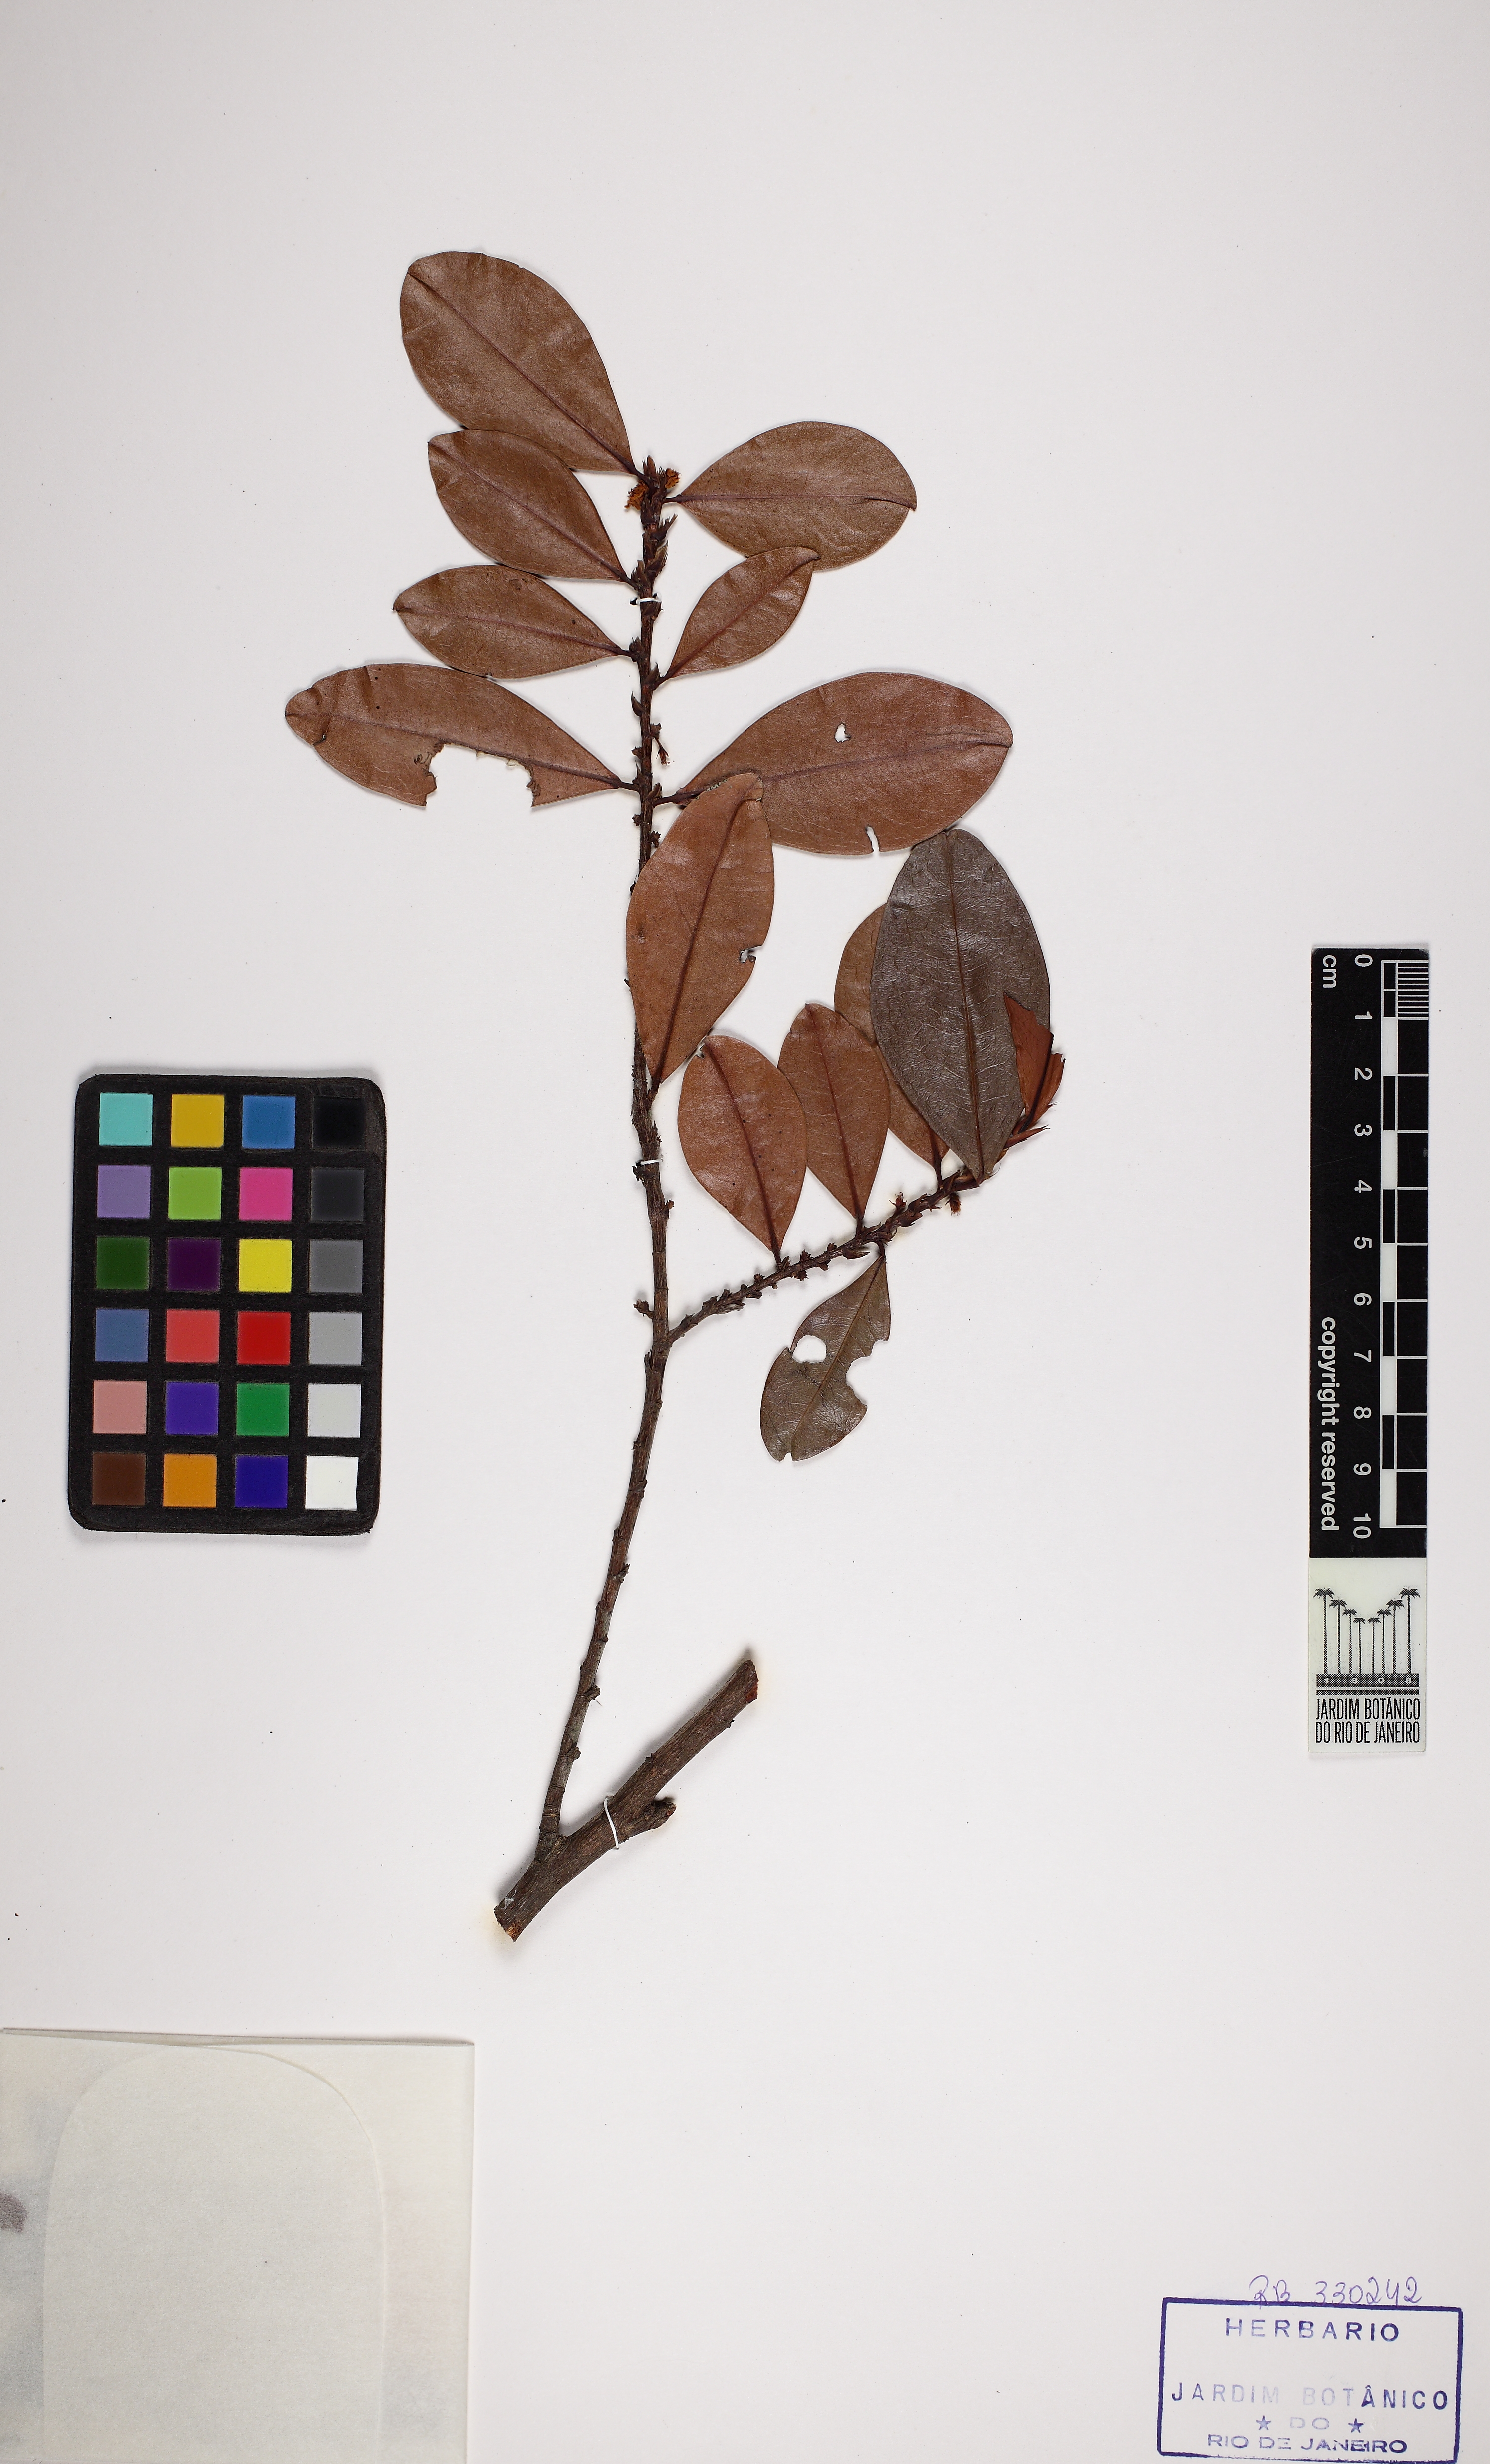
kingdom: Plantae
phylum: Tracheophyta
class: Magnoliopsida
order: Malpighiales
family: Erythroxylaceae
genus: Erythroxylum
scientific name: Erythroxylum mucronatum
